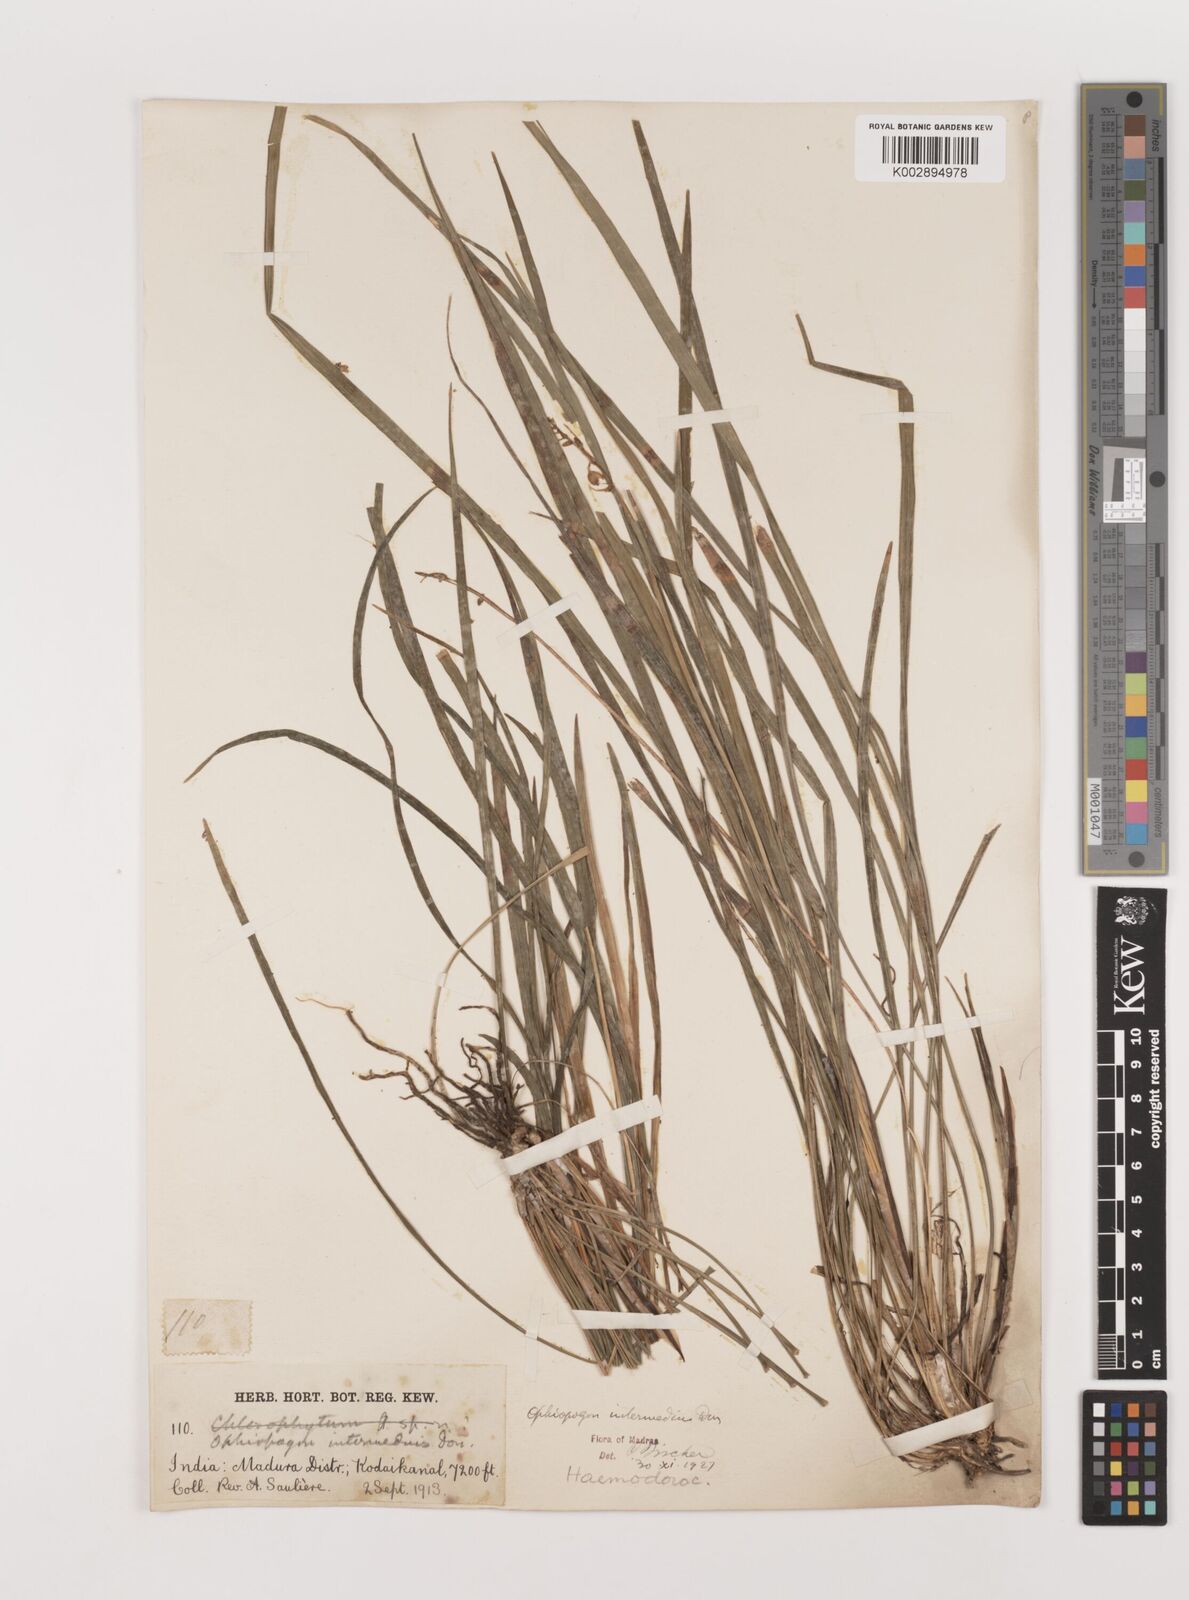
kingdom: Plantae
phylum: Tracheophyta
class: Liliopsida
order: Asparagales
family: Asparagaceae
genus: Ophiopogon
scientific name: Ophiopogon intermedius
